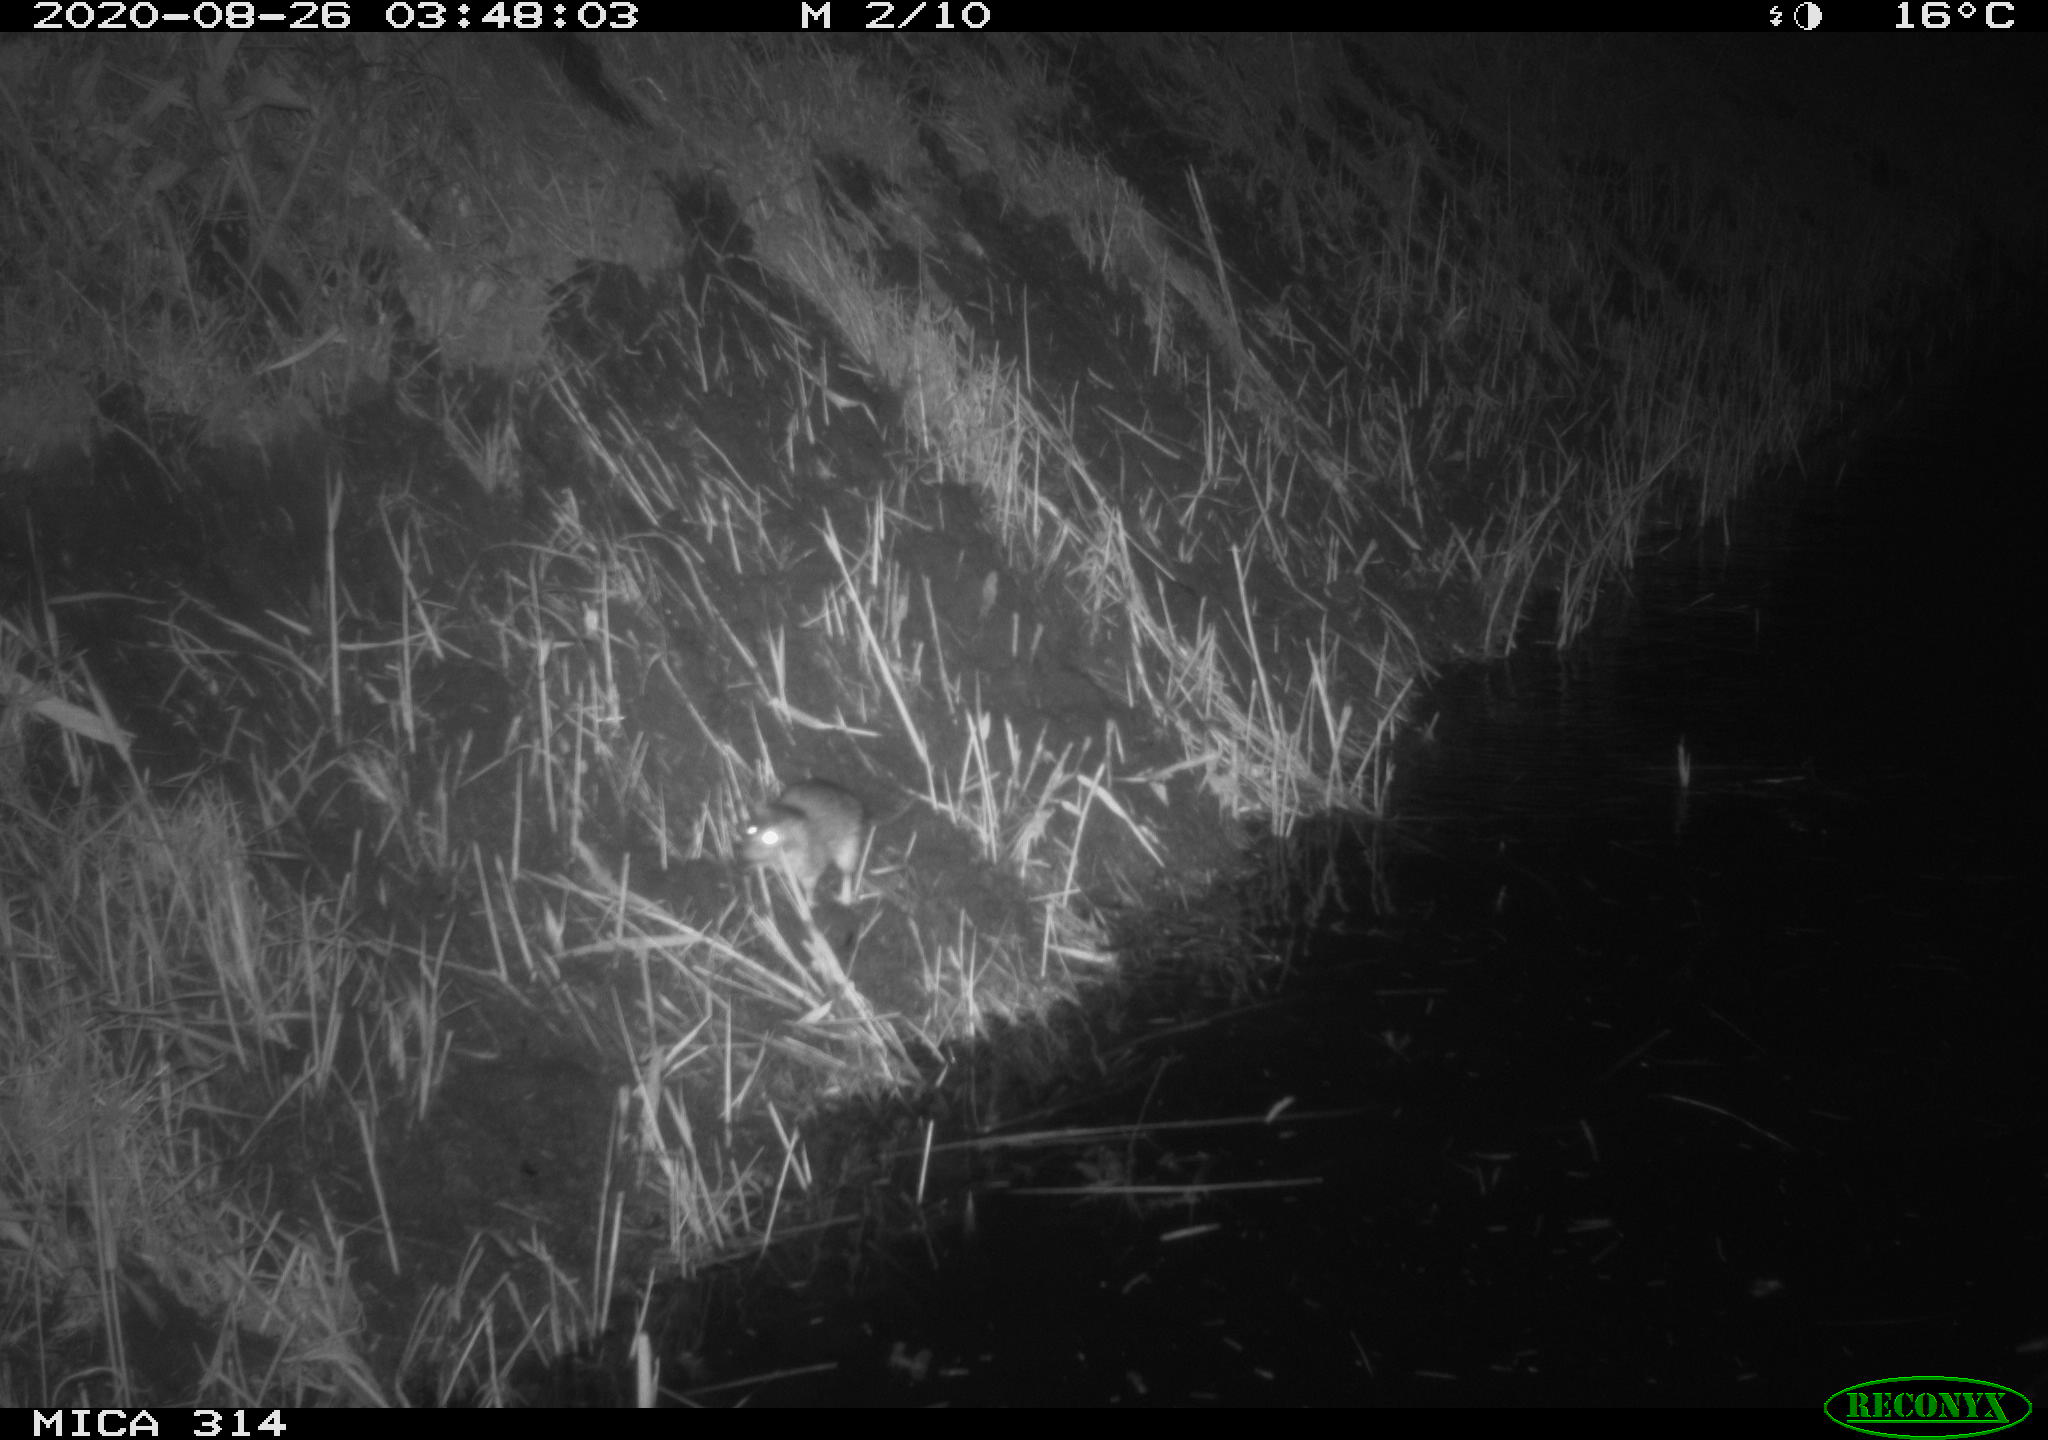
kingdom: Animalia
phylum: Chordata
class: Mammalia
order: Rodentia
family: Muridae
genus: Rattus
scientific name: Rattus norvegicus
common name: Brown rat
